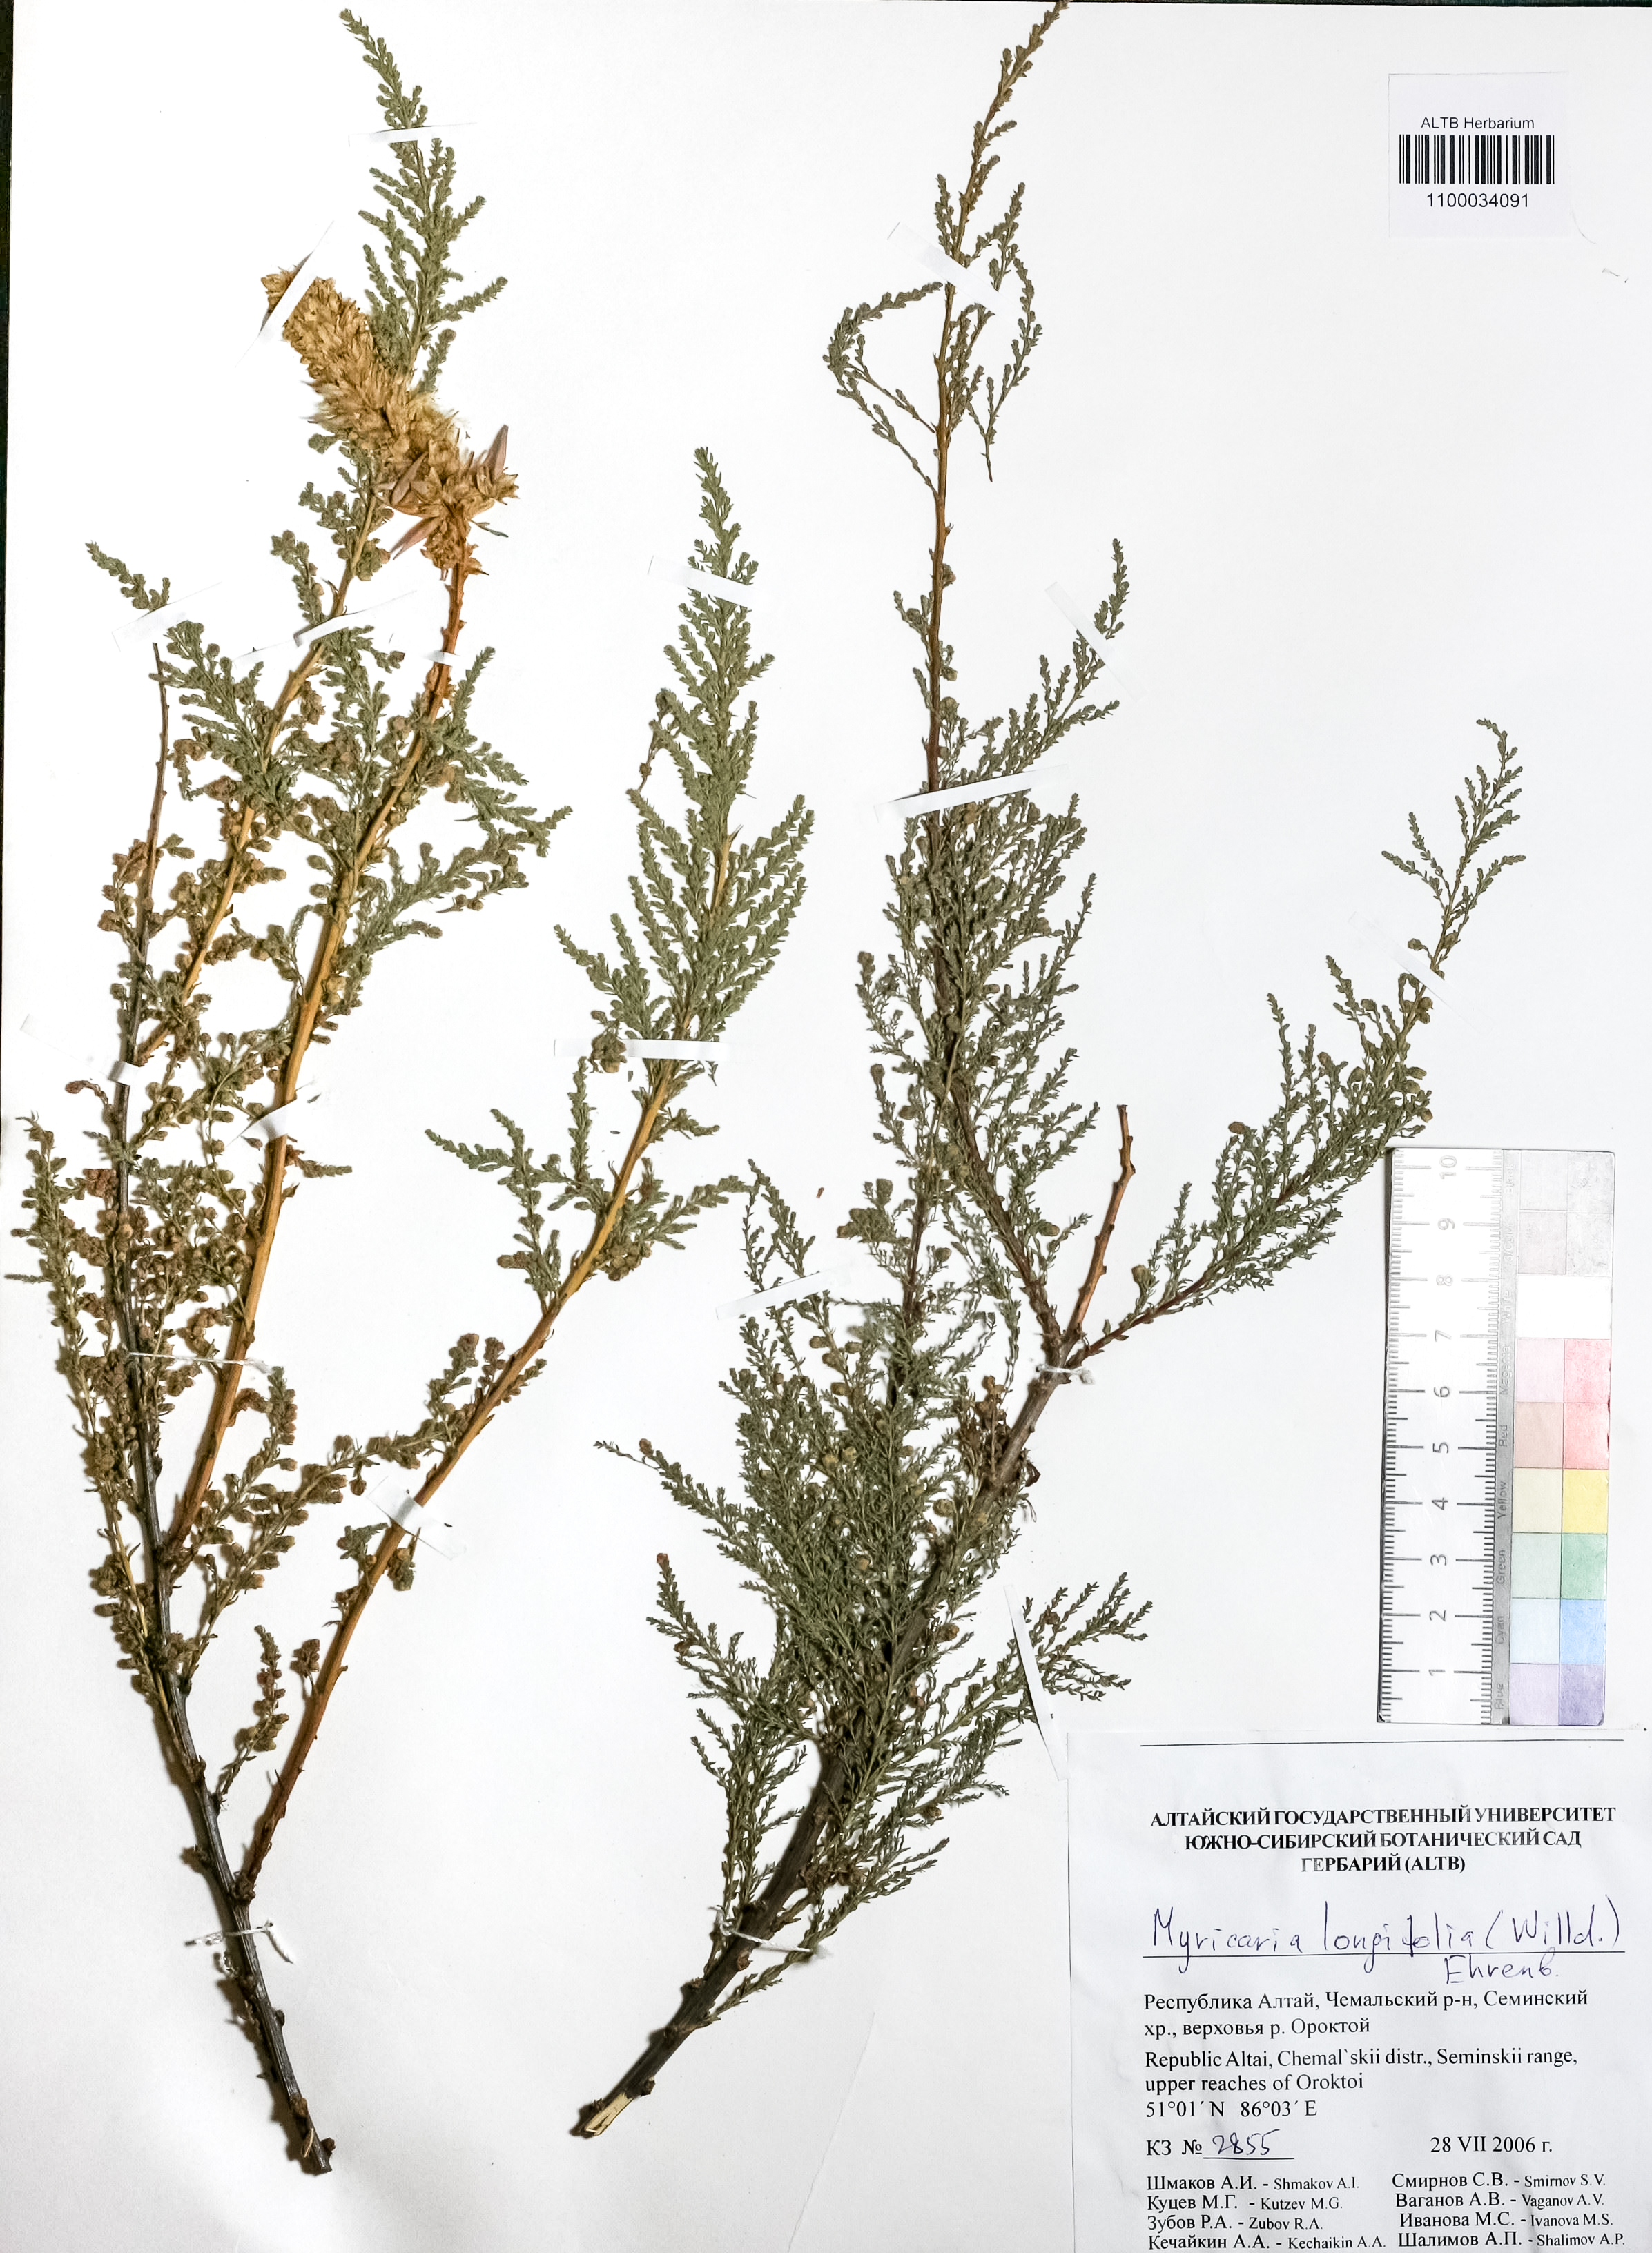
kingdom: Plantae
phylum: Tracheophyta
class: Magnoliopsida
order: Caryophyllales
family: Tamaricaceae
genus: Myricaria
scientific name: Myricaria longifolia
